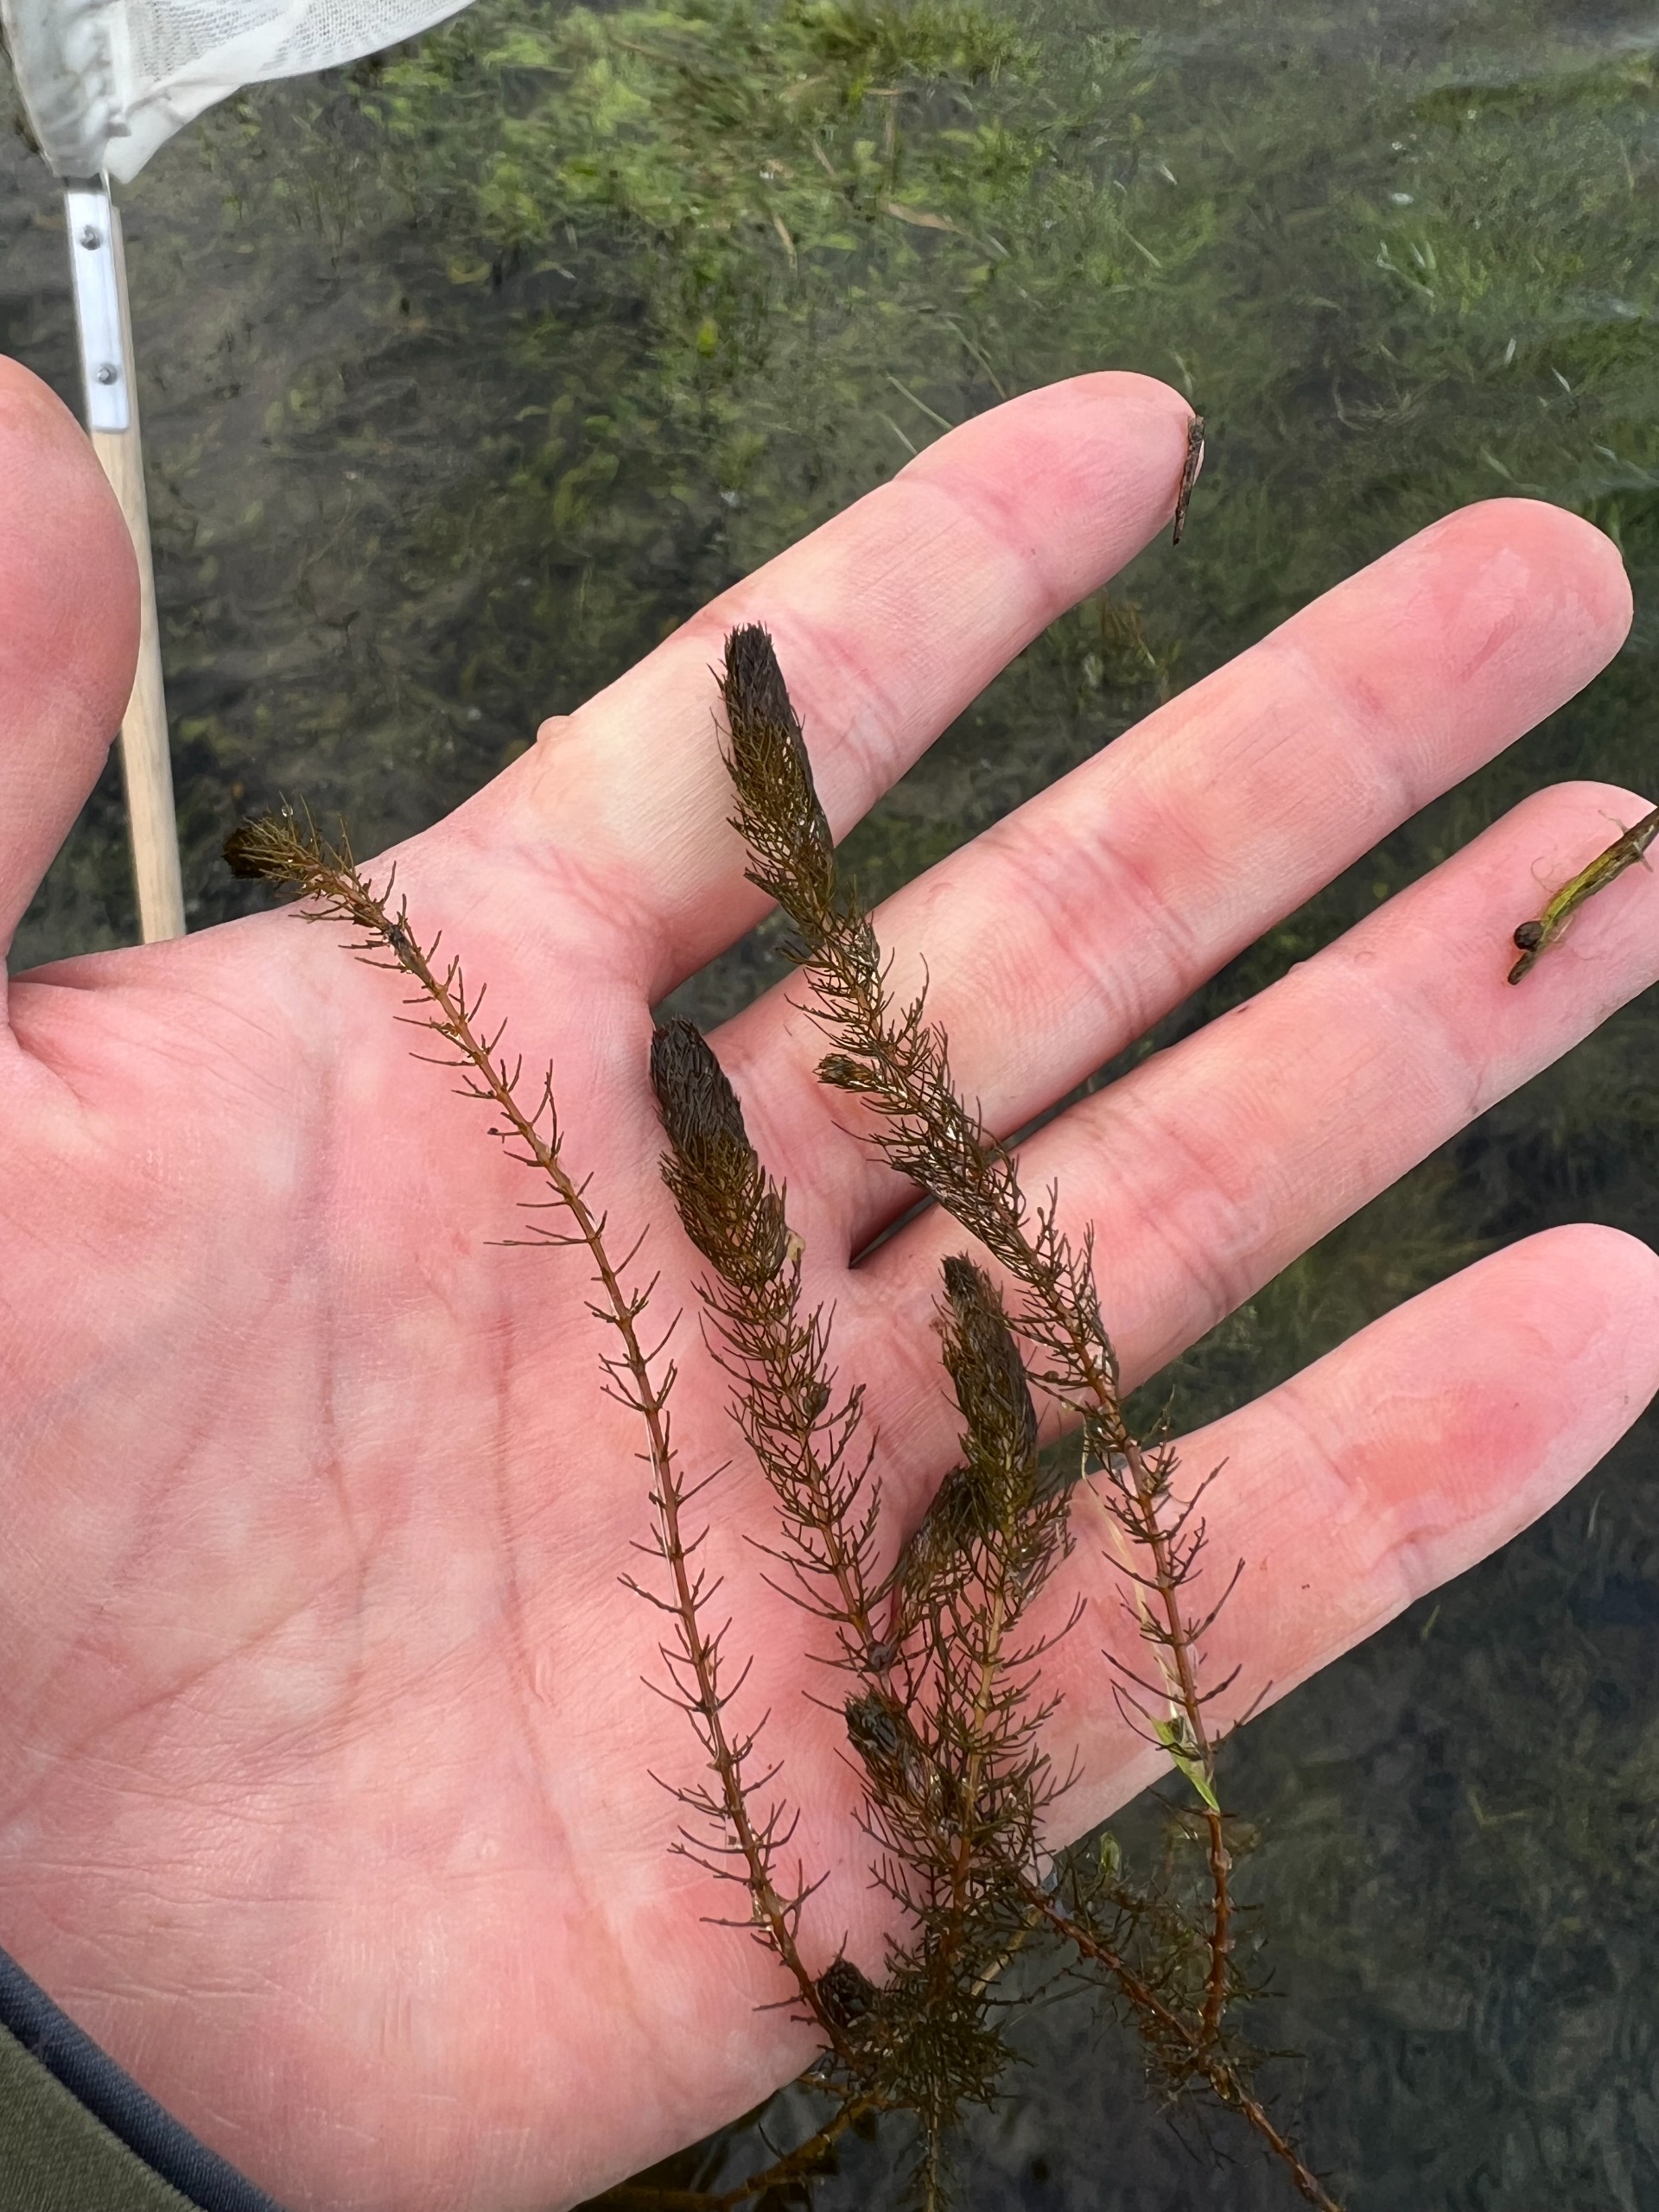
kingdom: Plantae
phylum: Tracheophyta
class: Magnoliopsida
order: Saxifragales
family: Haloragaceae
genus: Myriophyllum
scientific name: Myriophyllum alterniflorum
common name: Hår-tusindblad
